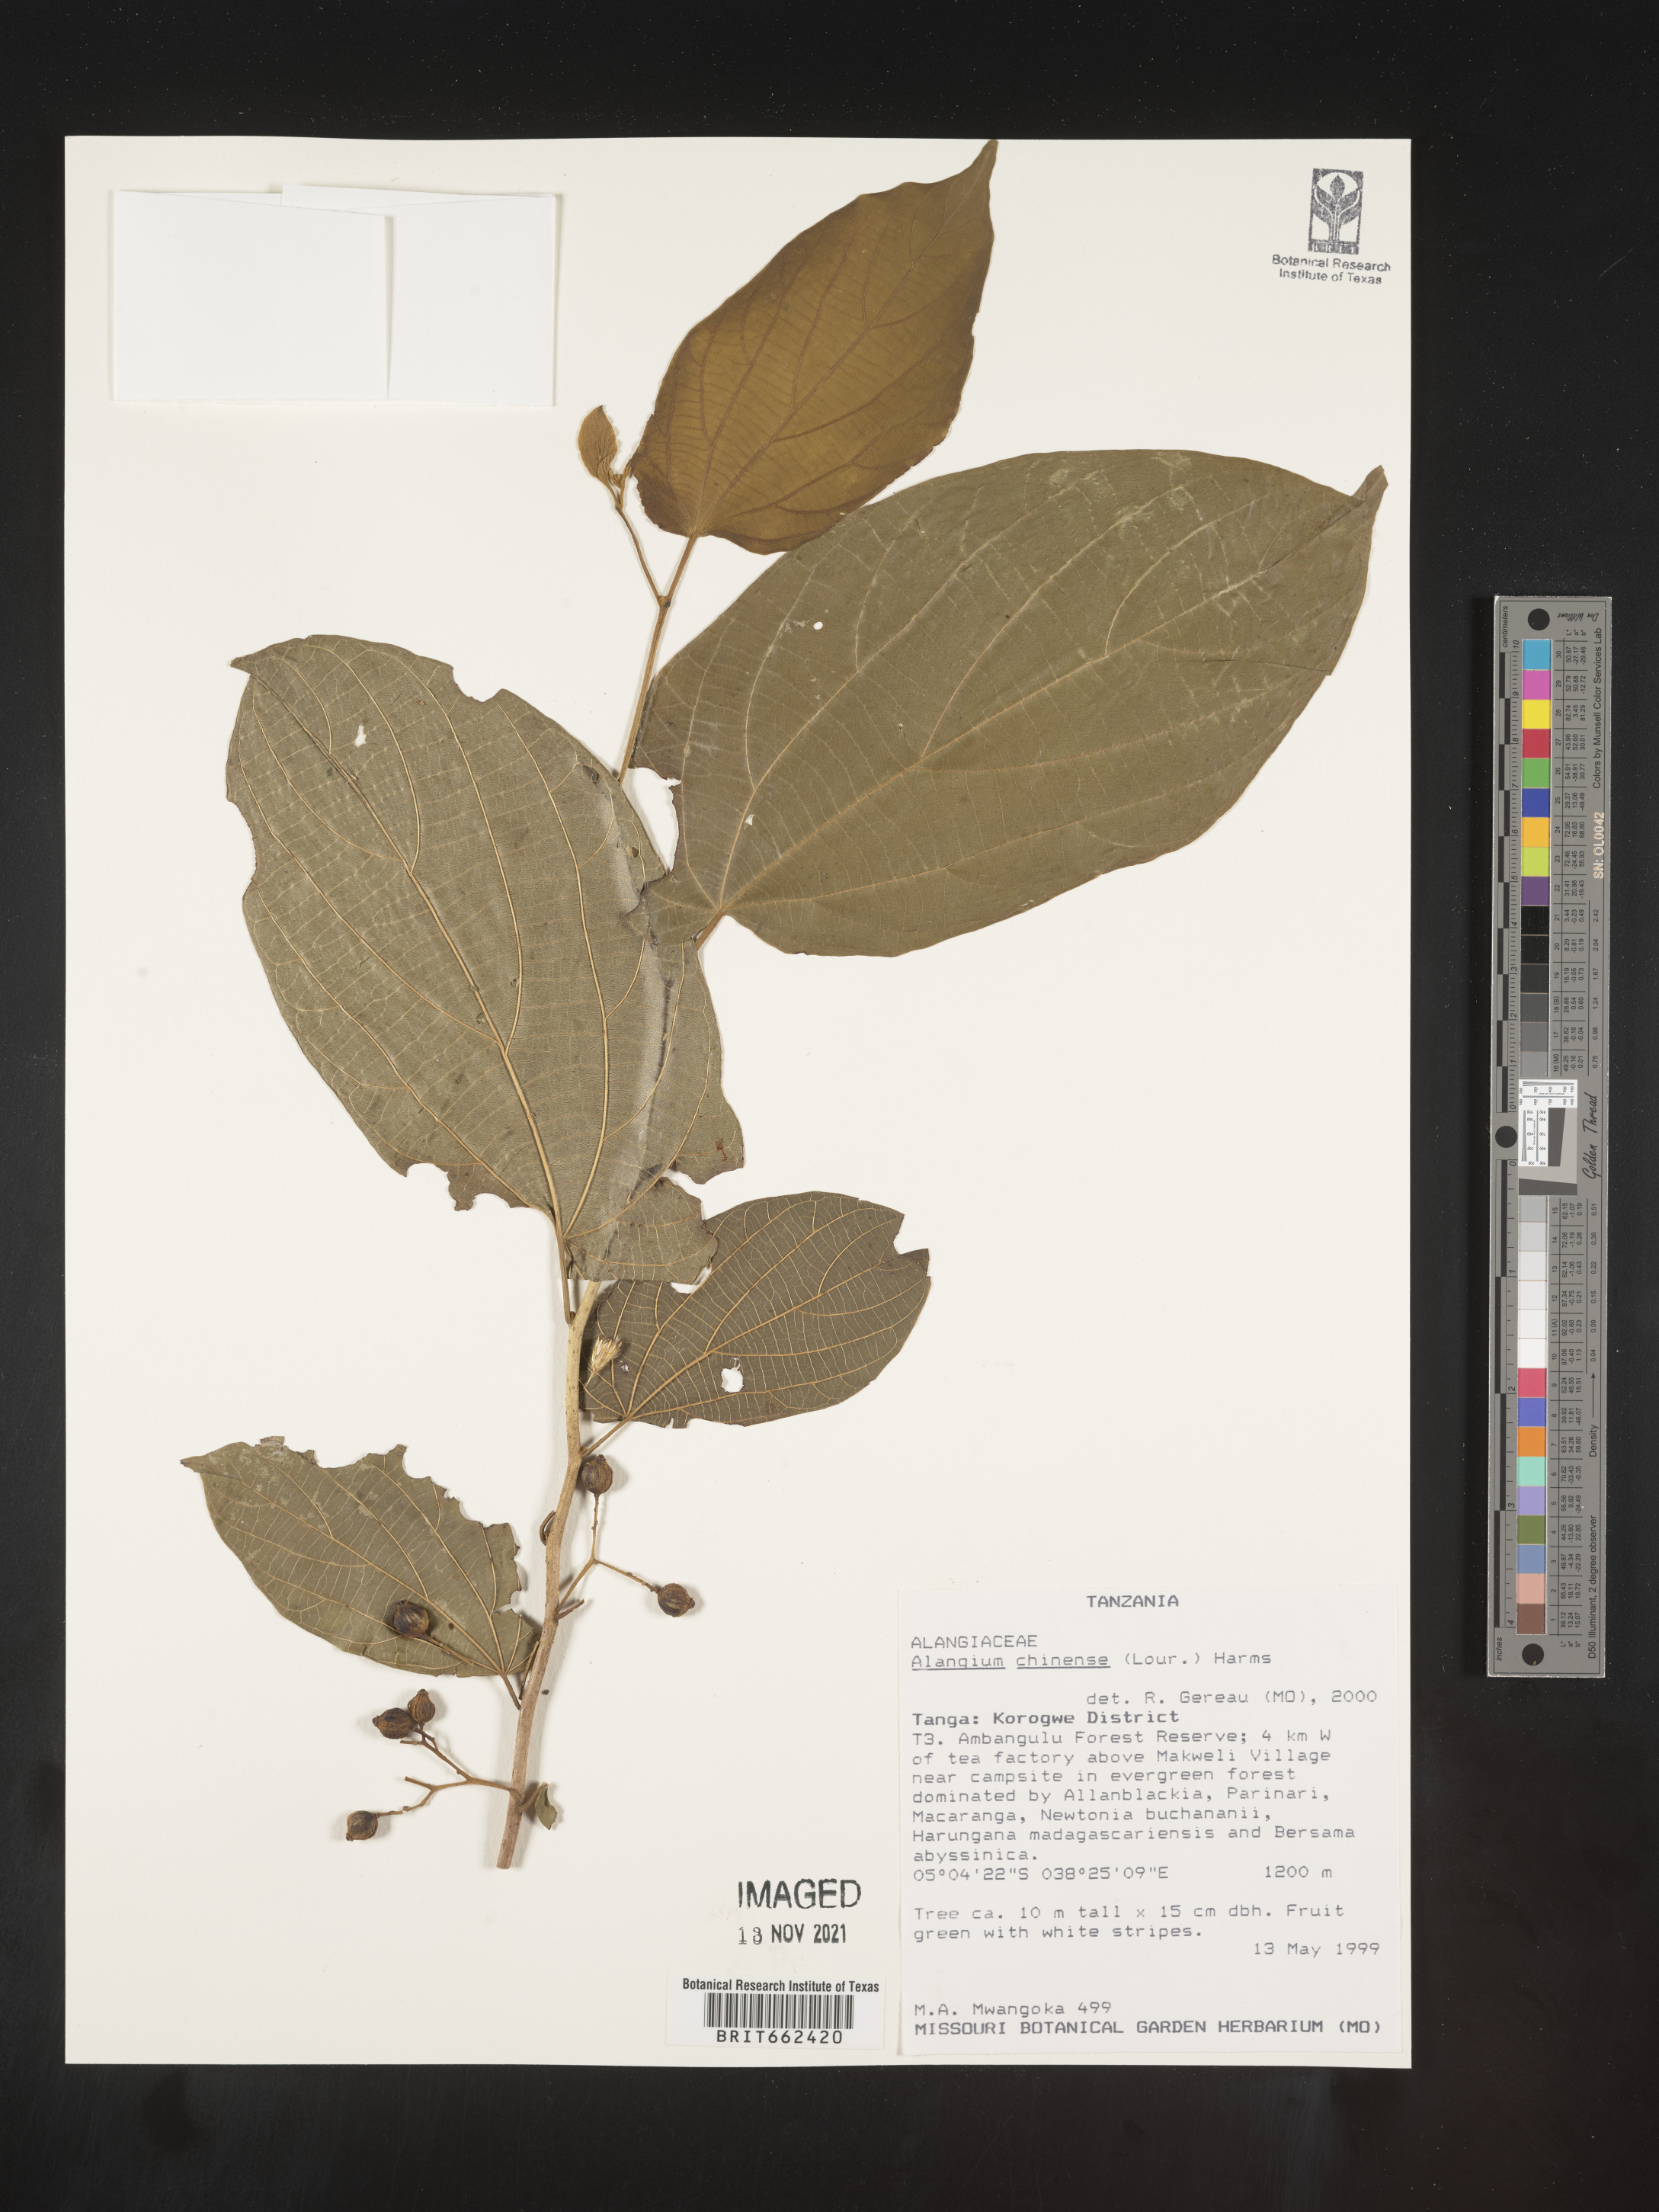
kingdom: Plantae
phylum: Tracheophyta
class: Magnoliopsida
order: Cornales
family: Cornaceae
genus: Alangium
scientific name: Alangium
